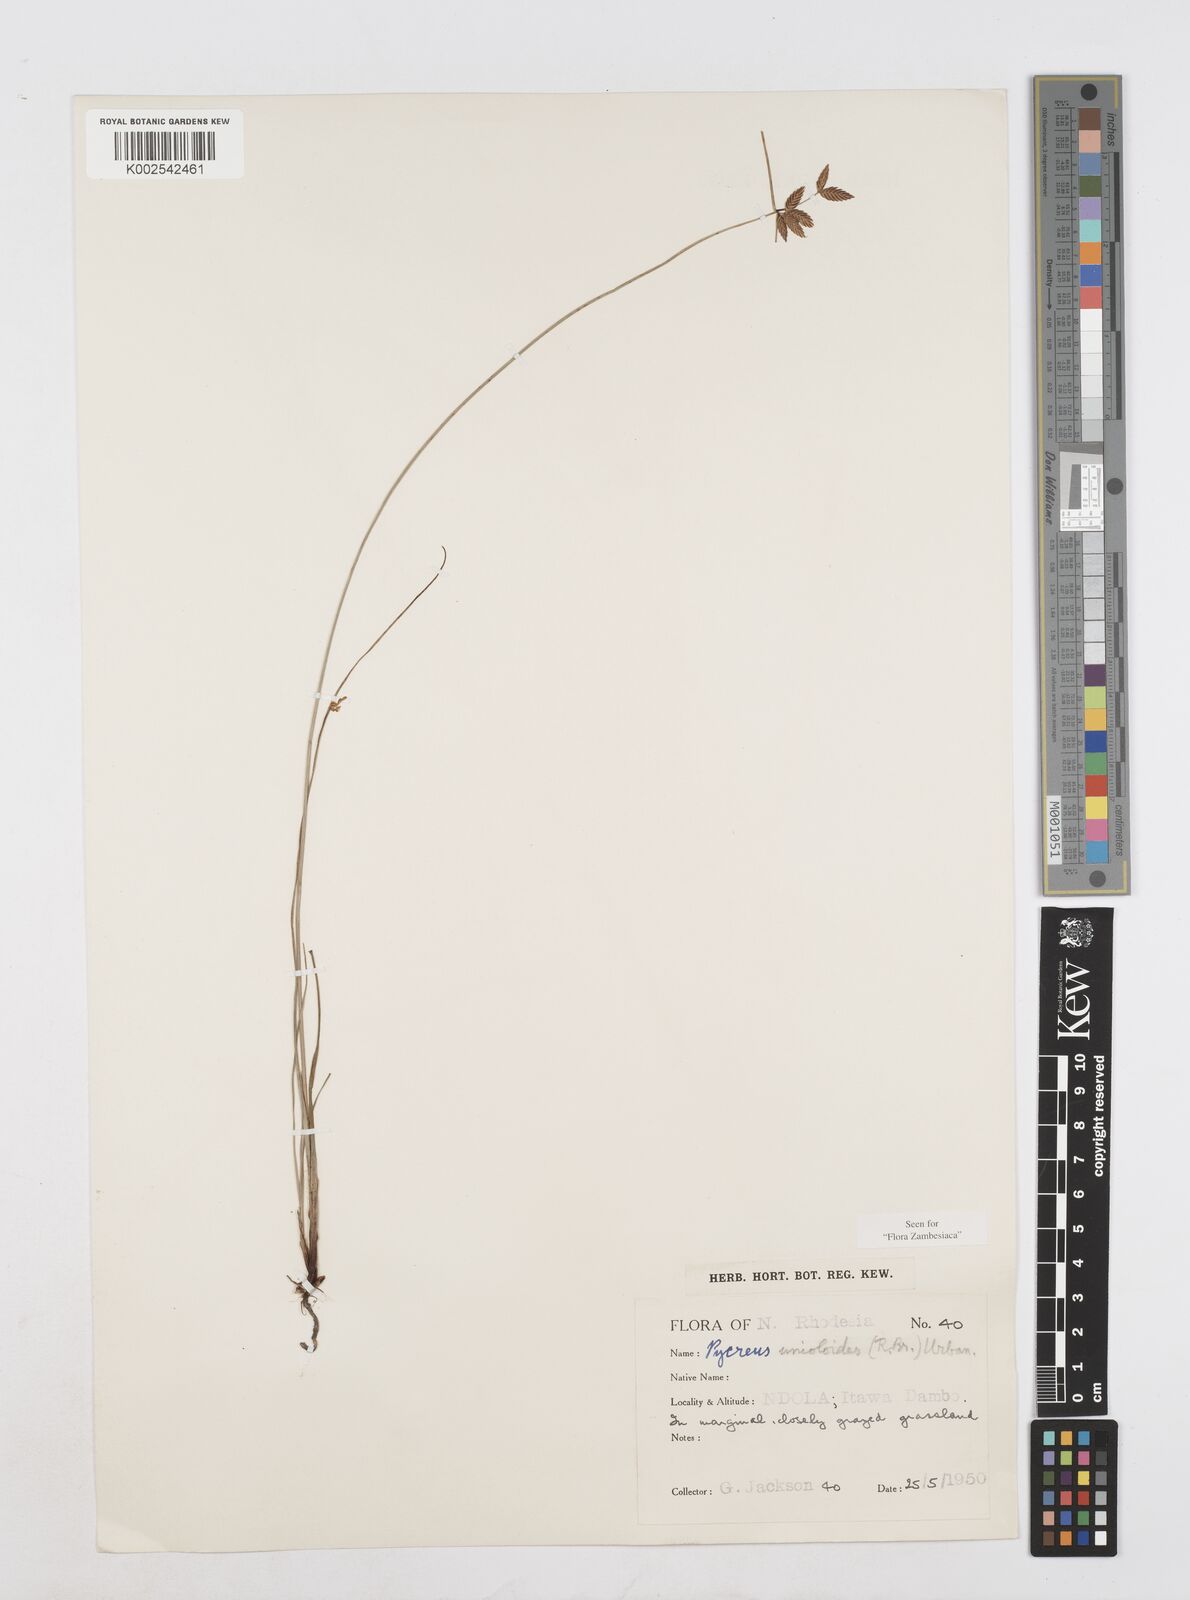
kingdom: Plantae
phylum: Tracheophyta
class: Liliopsida
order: Poales
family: Cyperaceae
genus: Cyperus
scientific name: Cyperus unioloides
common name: Uniola flatsedge
